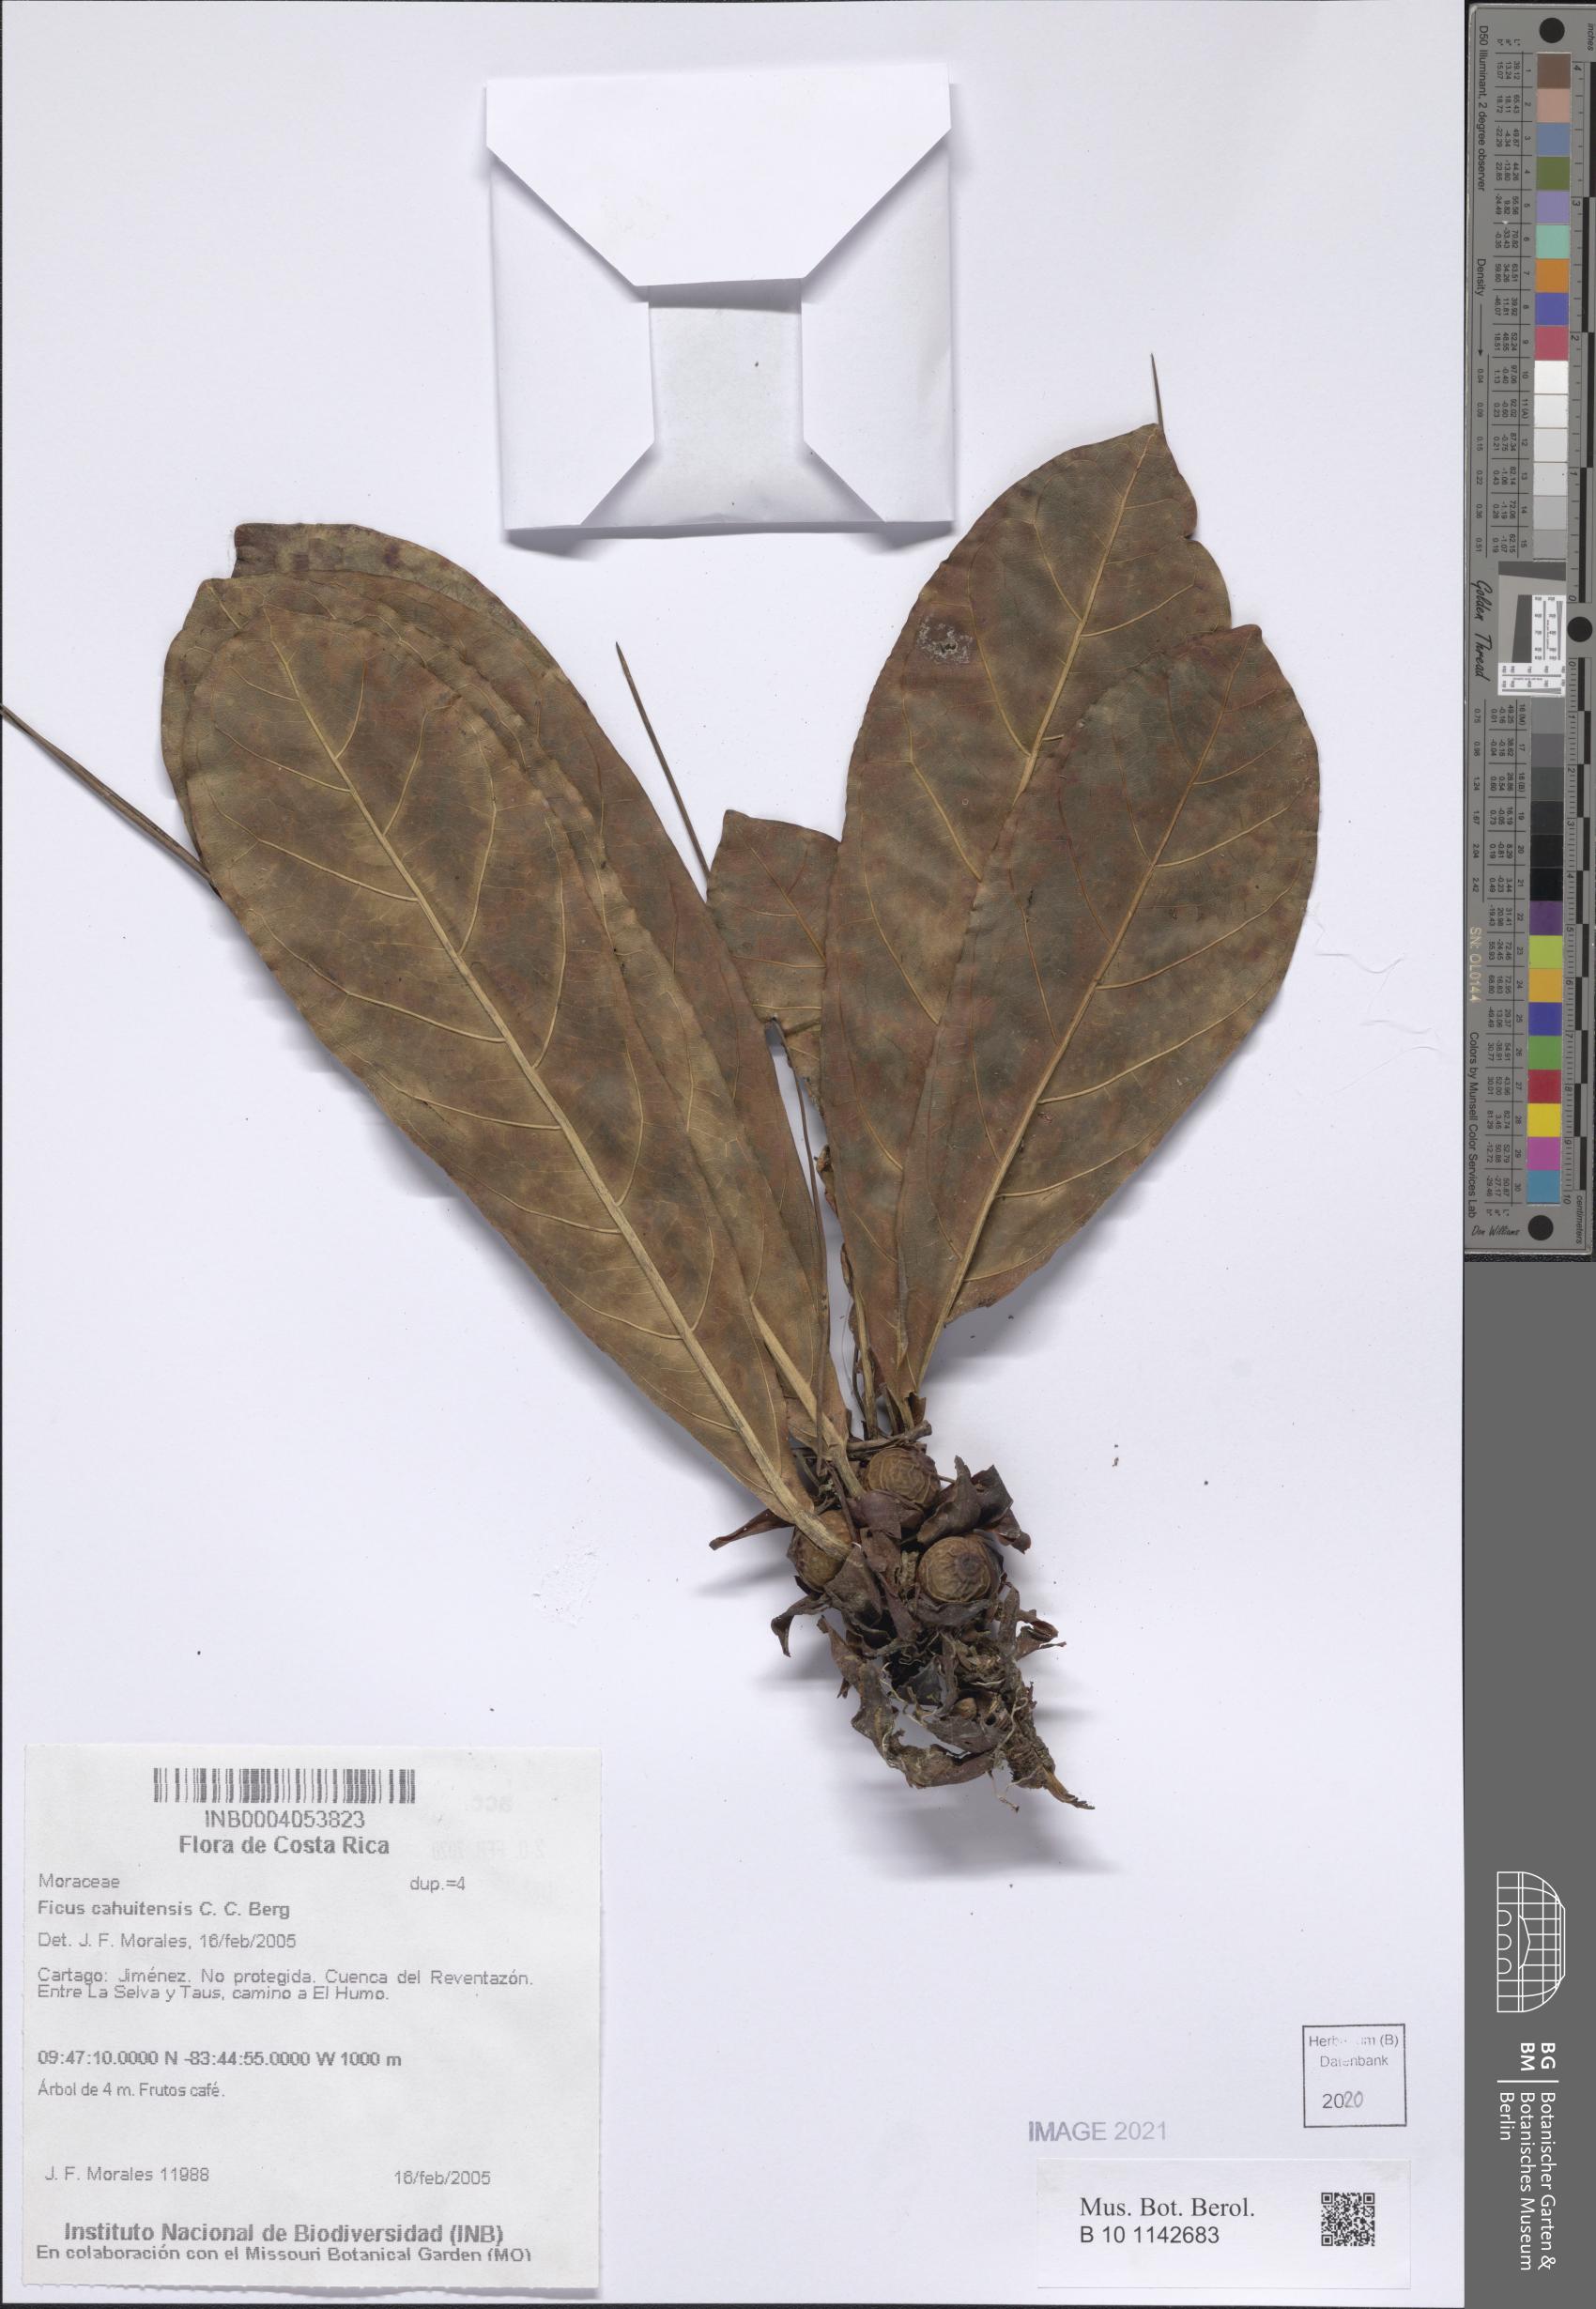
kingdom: Plantae
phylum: Tracheophyta
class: Magnoliopsida
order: Rosales
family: Moraceae
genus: Ficus
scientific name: Ficus cahuitensis
